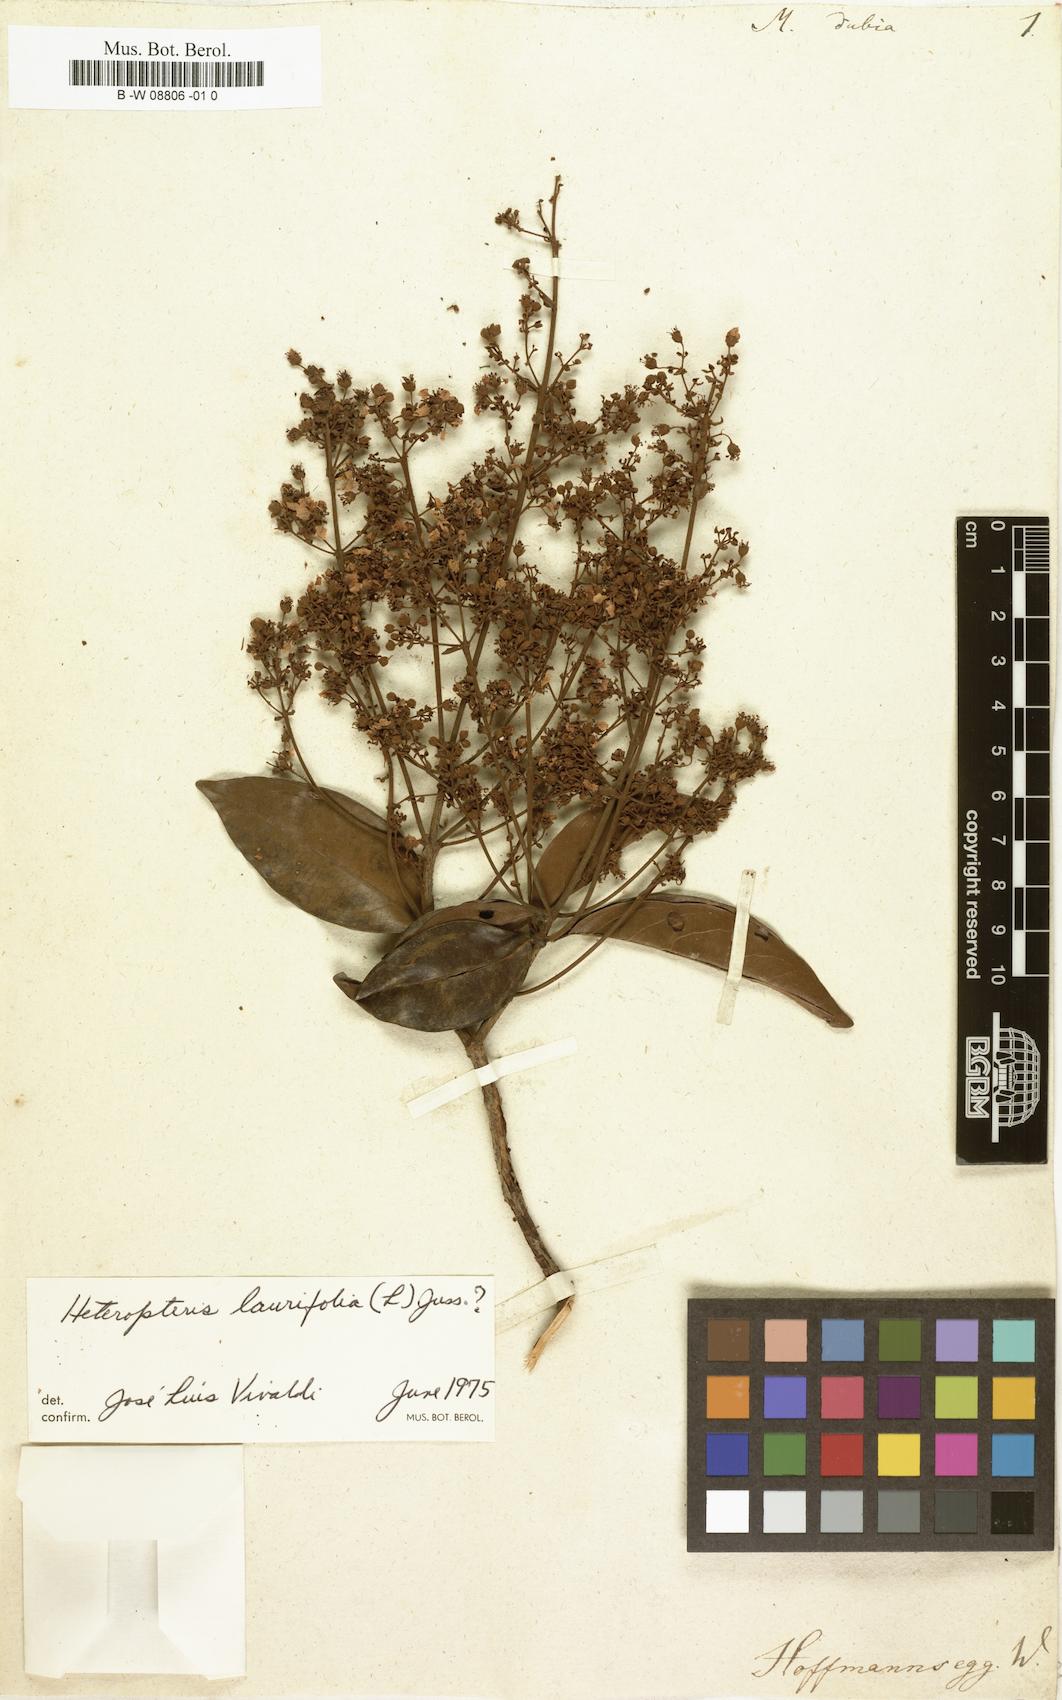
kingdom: Plantae
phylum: Tracheophyta
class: Magnoliopsida
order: Malpighiales
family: Malpighiaceae
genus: Heteropterys
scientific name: Heteropterys laurifolia
